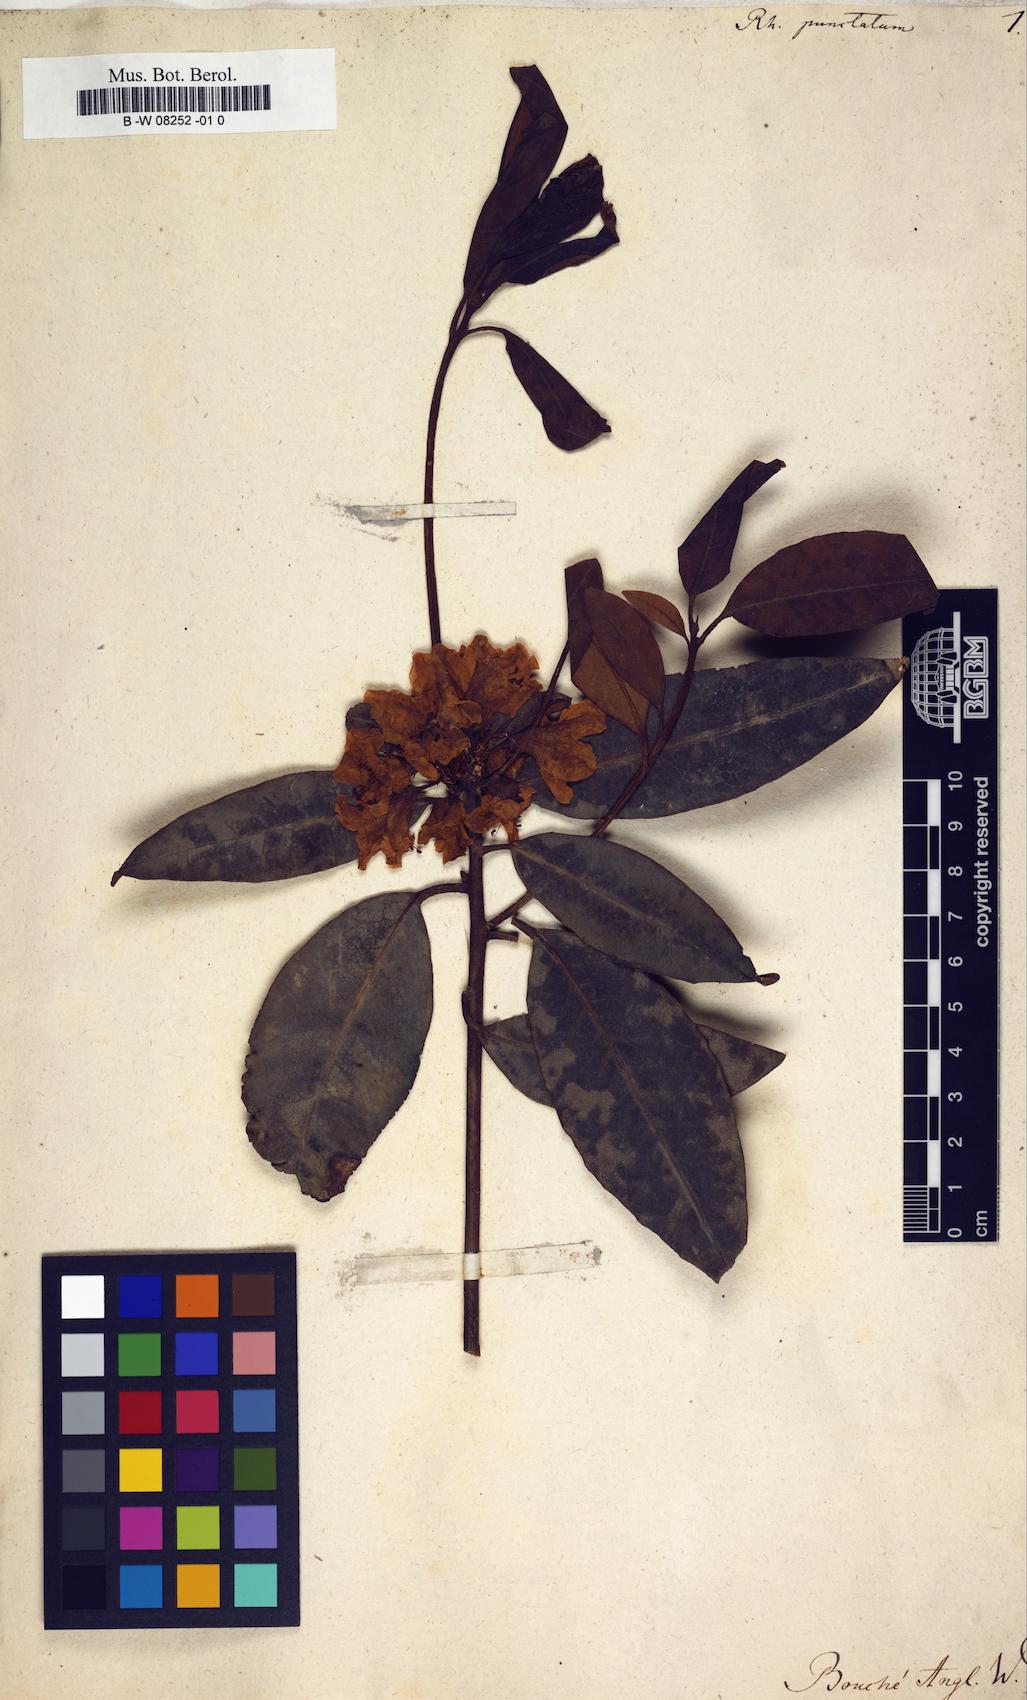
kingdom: Plantae
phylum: Tracheophyta
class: Magnoliopsida
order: Ericales
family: Ericaceae
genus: Rhododendron
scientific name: Rhododendron minus
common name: Piedmont rhododendron
